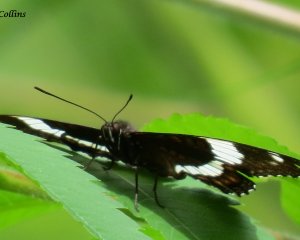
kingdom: Animalia
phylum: Arthropoda
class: Insecta
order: Lepidoptera
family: Nymphalidae
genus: Limenitis
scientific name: Limenitis arthemis
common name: Red-spotted Admiral
